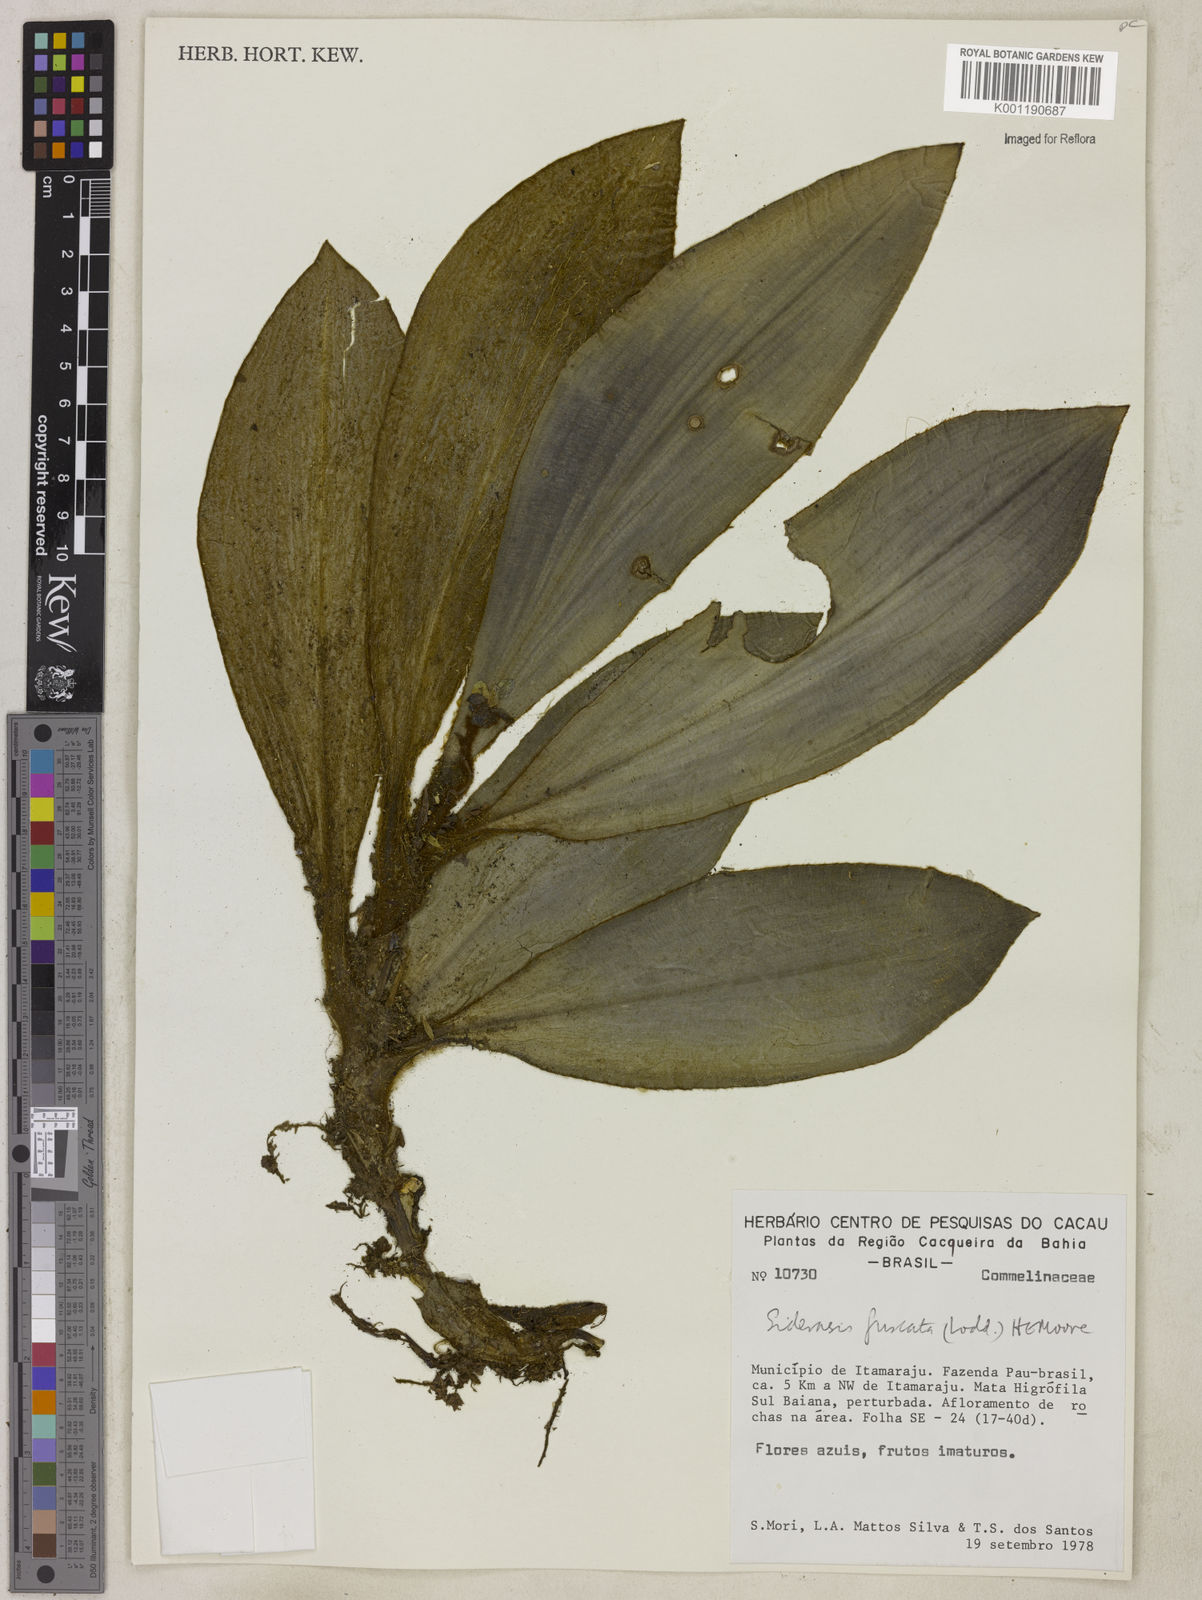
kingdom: Plantae
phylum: Tracheophyta
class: Liliopsida
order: Commelinales
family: Commelinaceae
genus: Siderasis
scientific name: Siderasis fuscata
